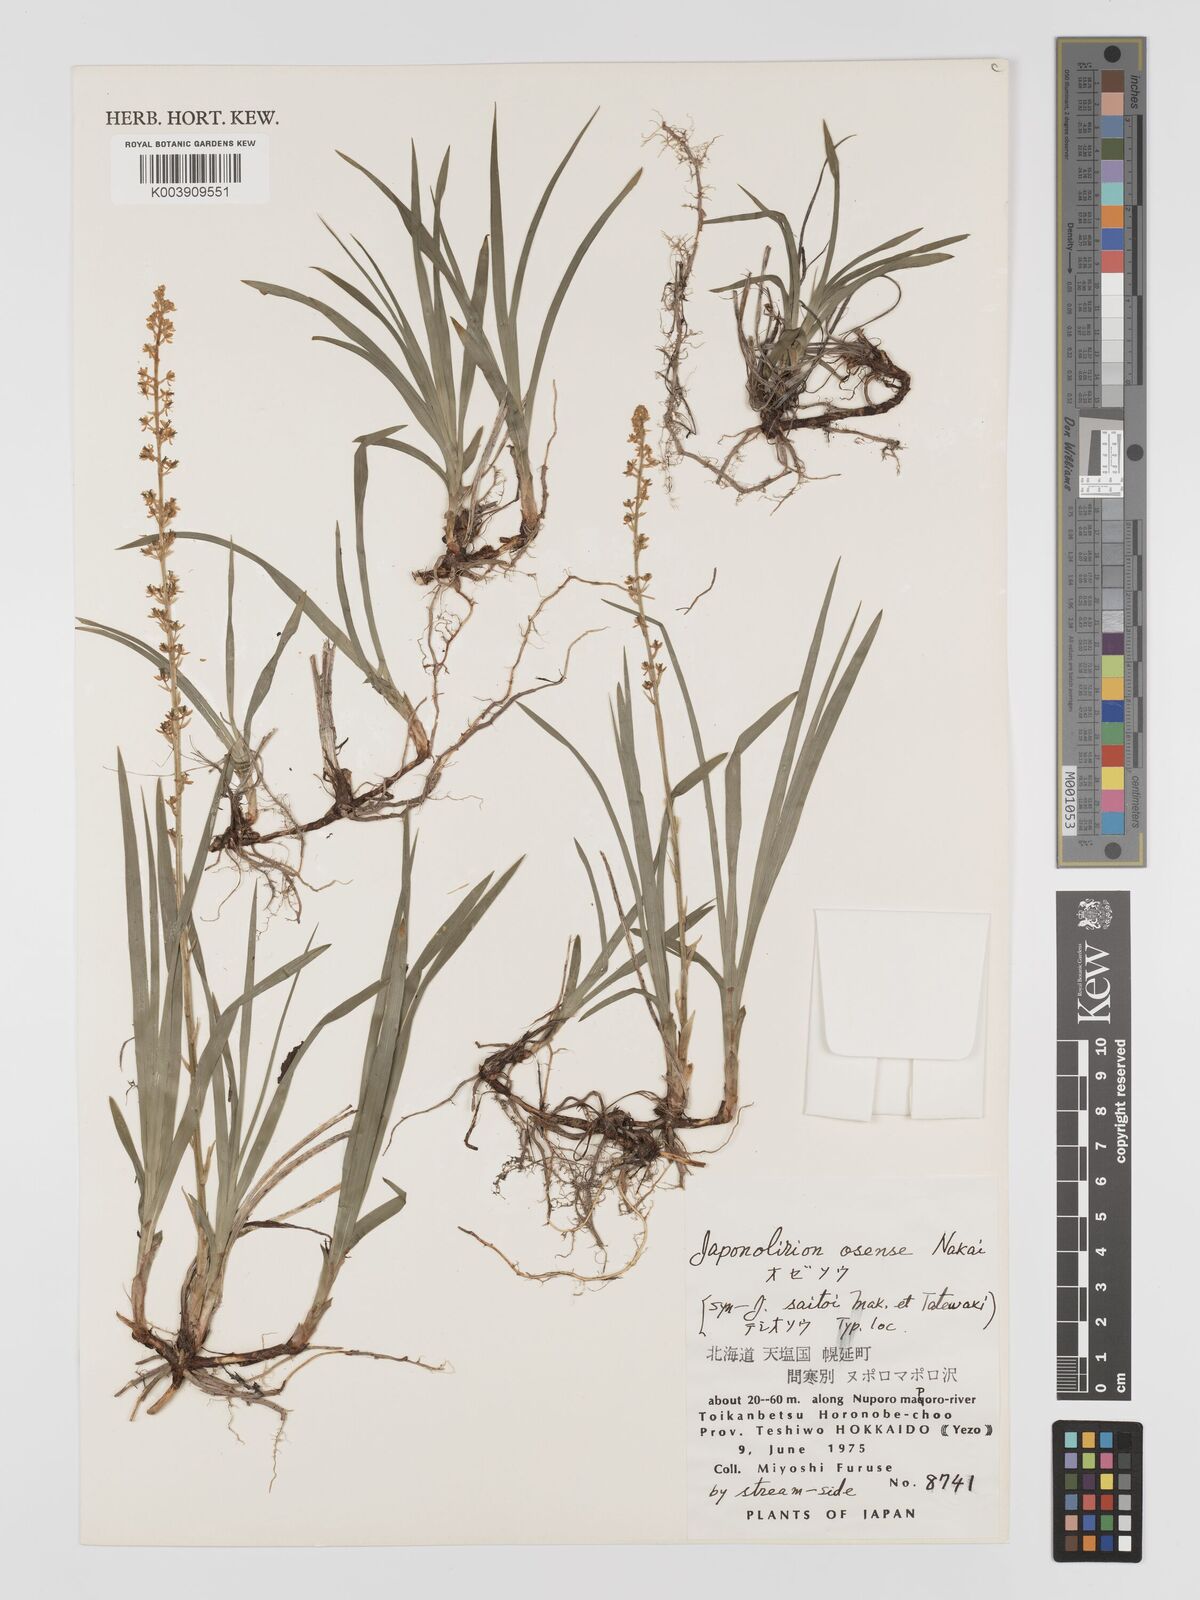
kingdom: Plantae
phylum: Tracheophyta
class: Liliopsida
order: Petrosaviales
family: Petrosaviaceae
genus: Japonolirion
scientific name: Japonolirion osense
